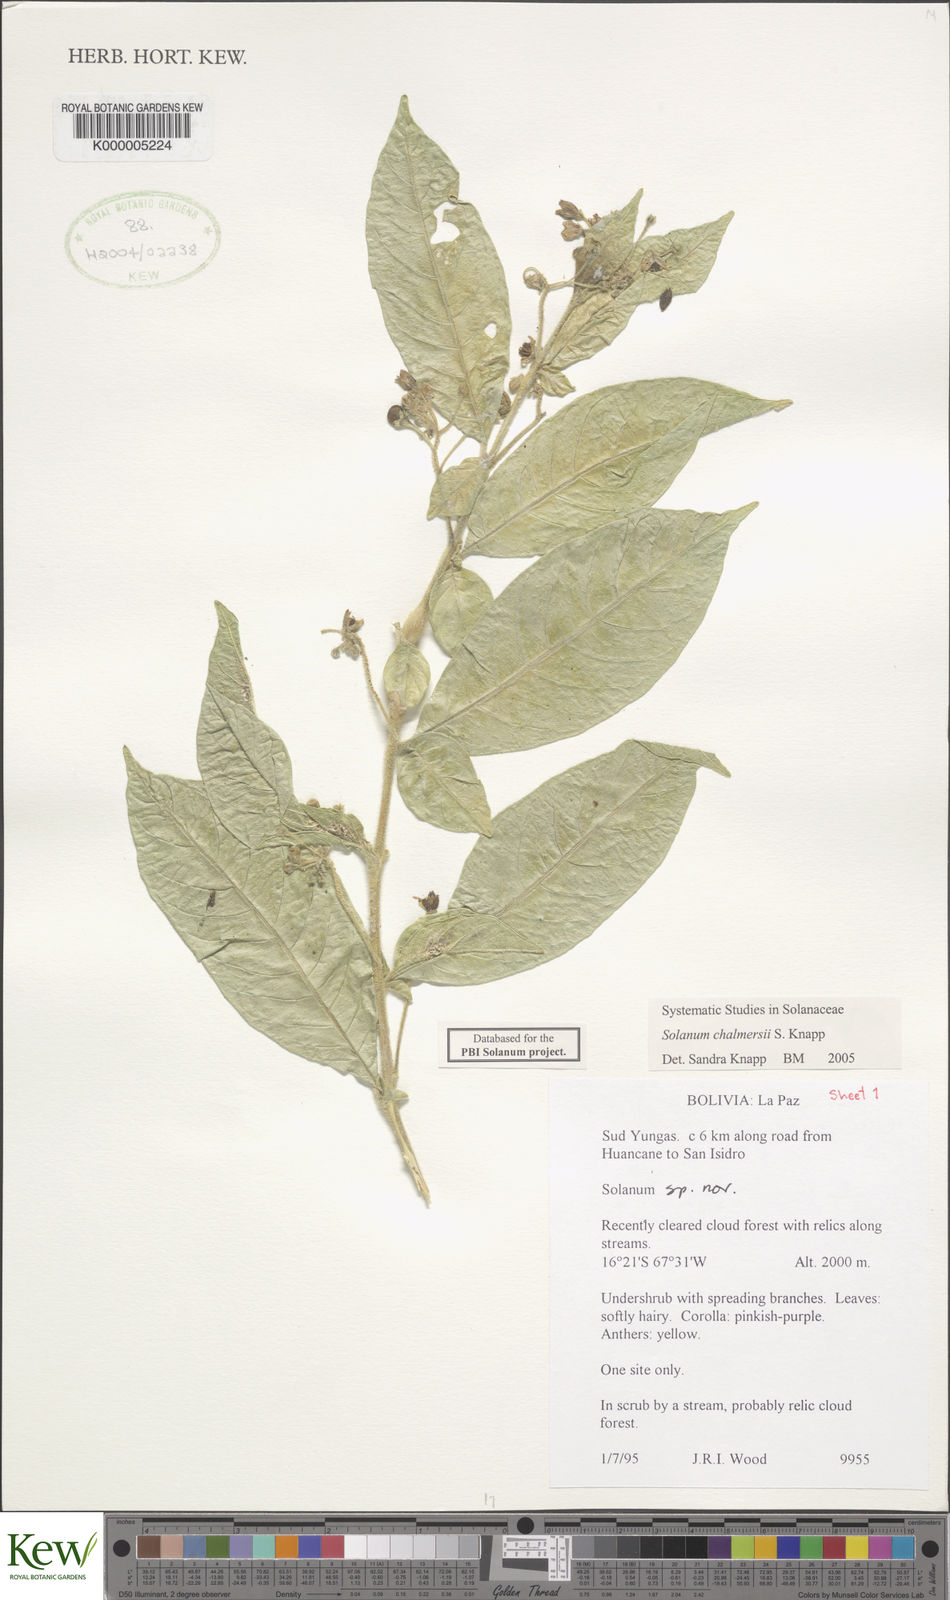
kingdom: Plantae
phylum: Tracheophyta
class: Magnoliopsida
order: Solanales
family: Solanaceae
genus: Solanum
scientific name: Solanum chalmersii
